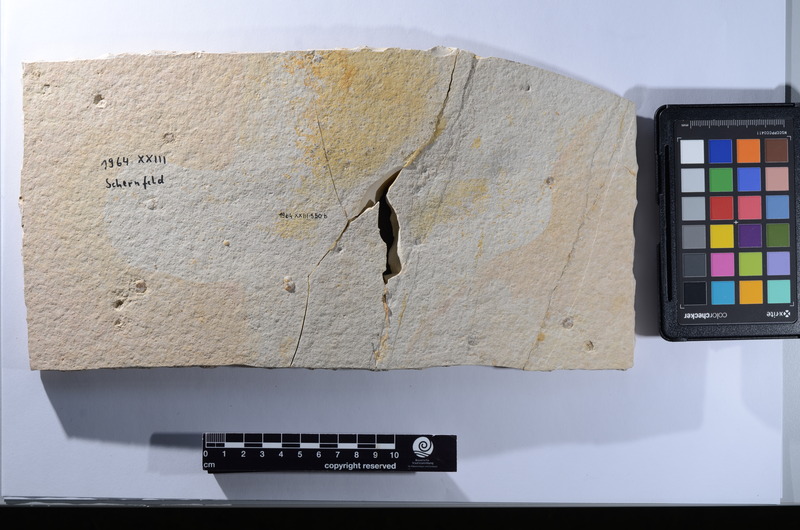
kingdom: Animalia
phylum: Chordata
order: Amiiformes
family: Amiidae
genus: Amiopsis
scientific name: Amiopsis lepidota
